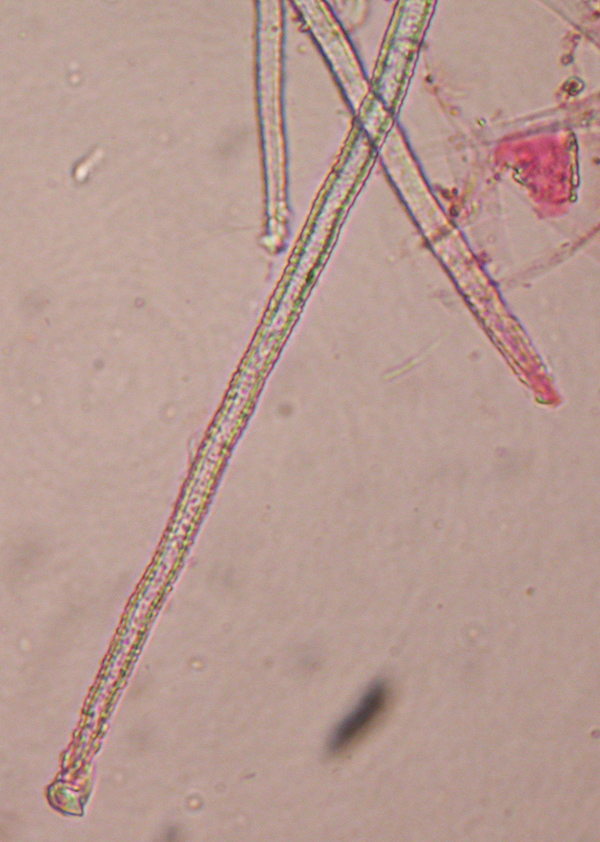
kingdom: Fungi
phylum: Basidiomycota
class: Agaricomycetes
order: Agaricales
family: Cyphellaceae
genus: Seticyphella
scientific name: Seticyphella tenuispora
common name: smalsporet hængeskål
